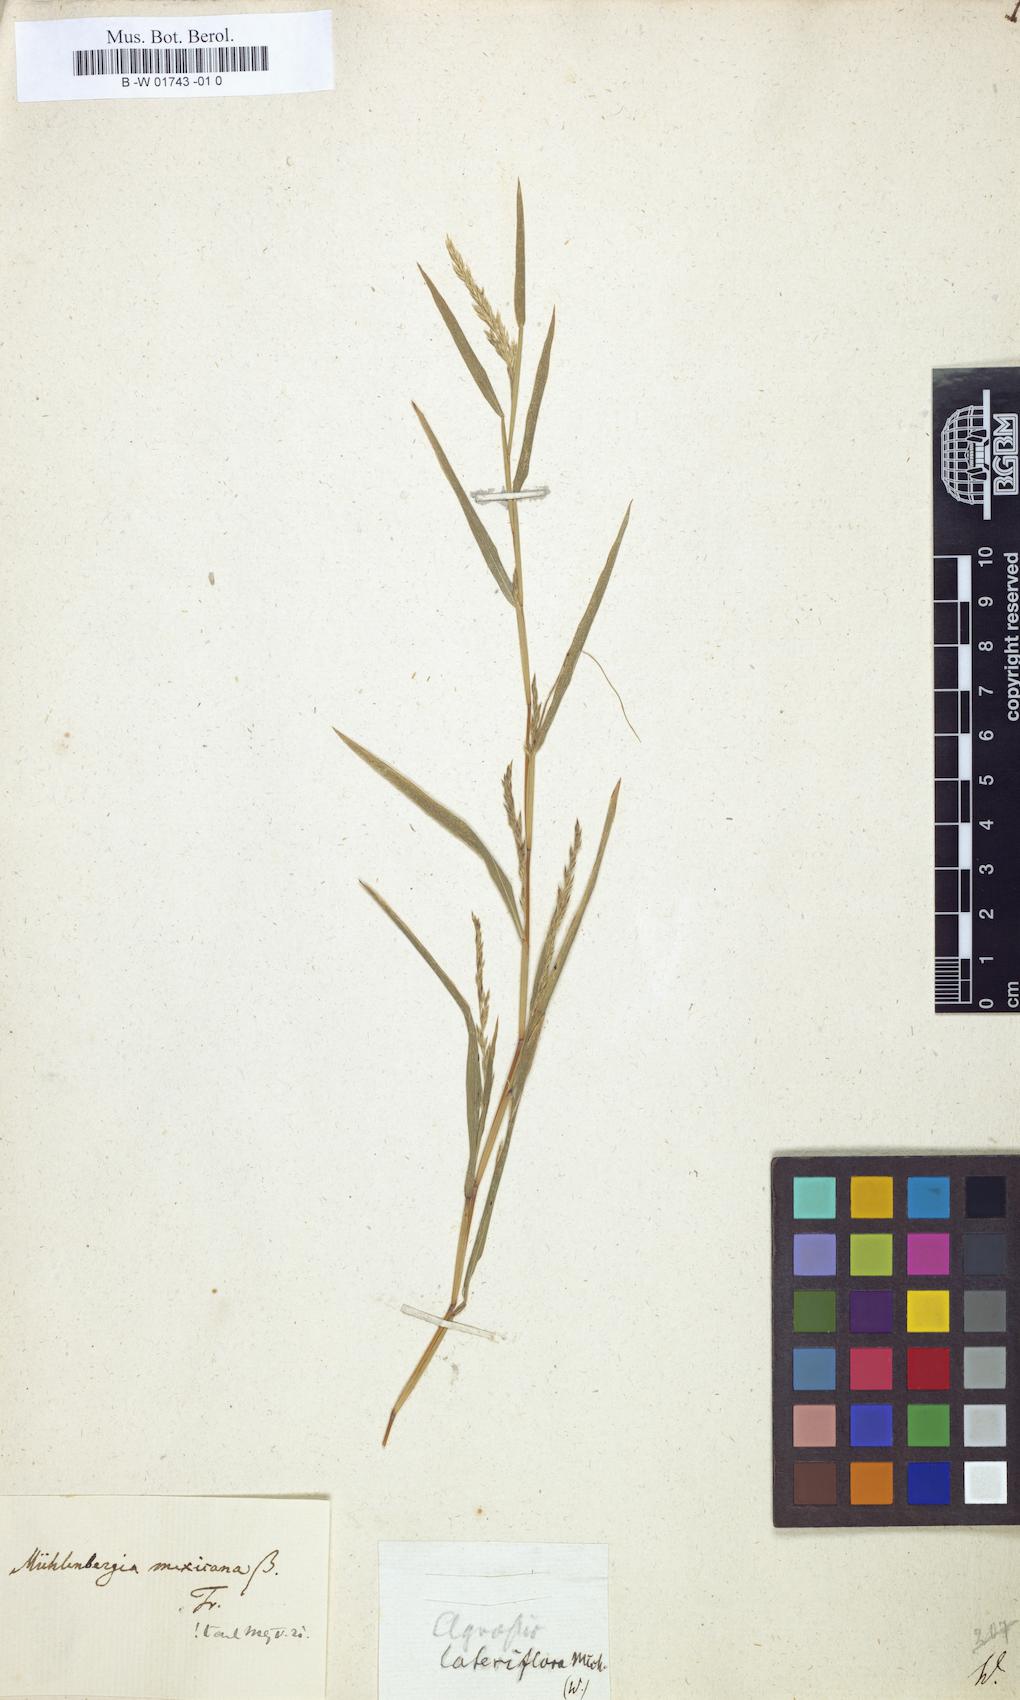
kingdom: Plantae
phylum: Tracheophyta
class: Liliopsida
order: Poales
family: Poaceae
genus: Muhlenbergia
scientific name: Muhlenbergia mexicana
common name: Mexican muhly
